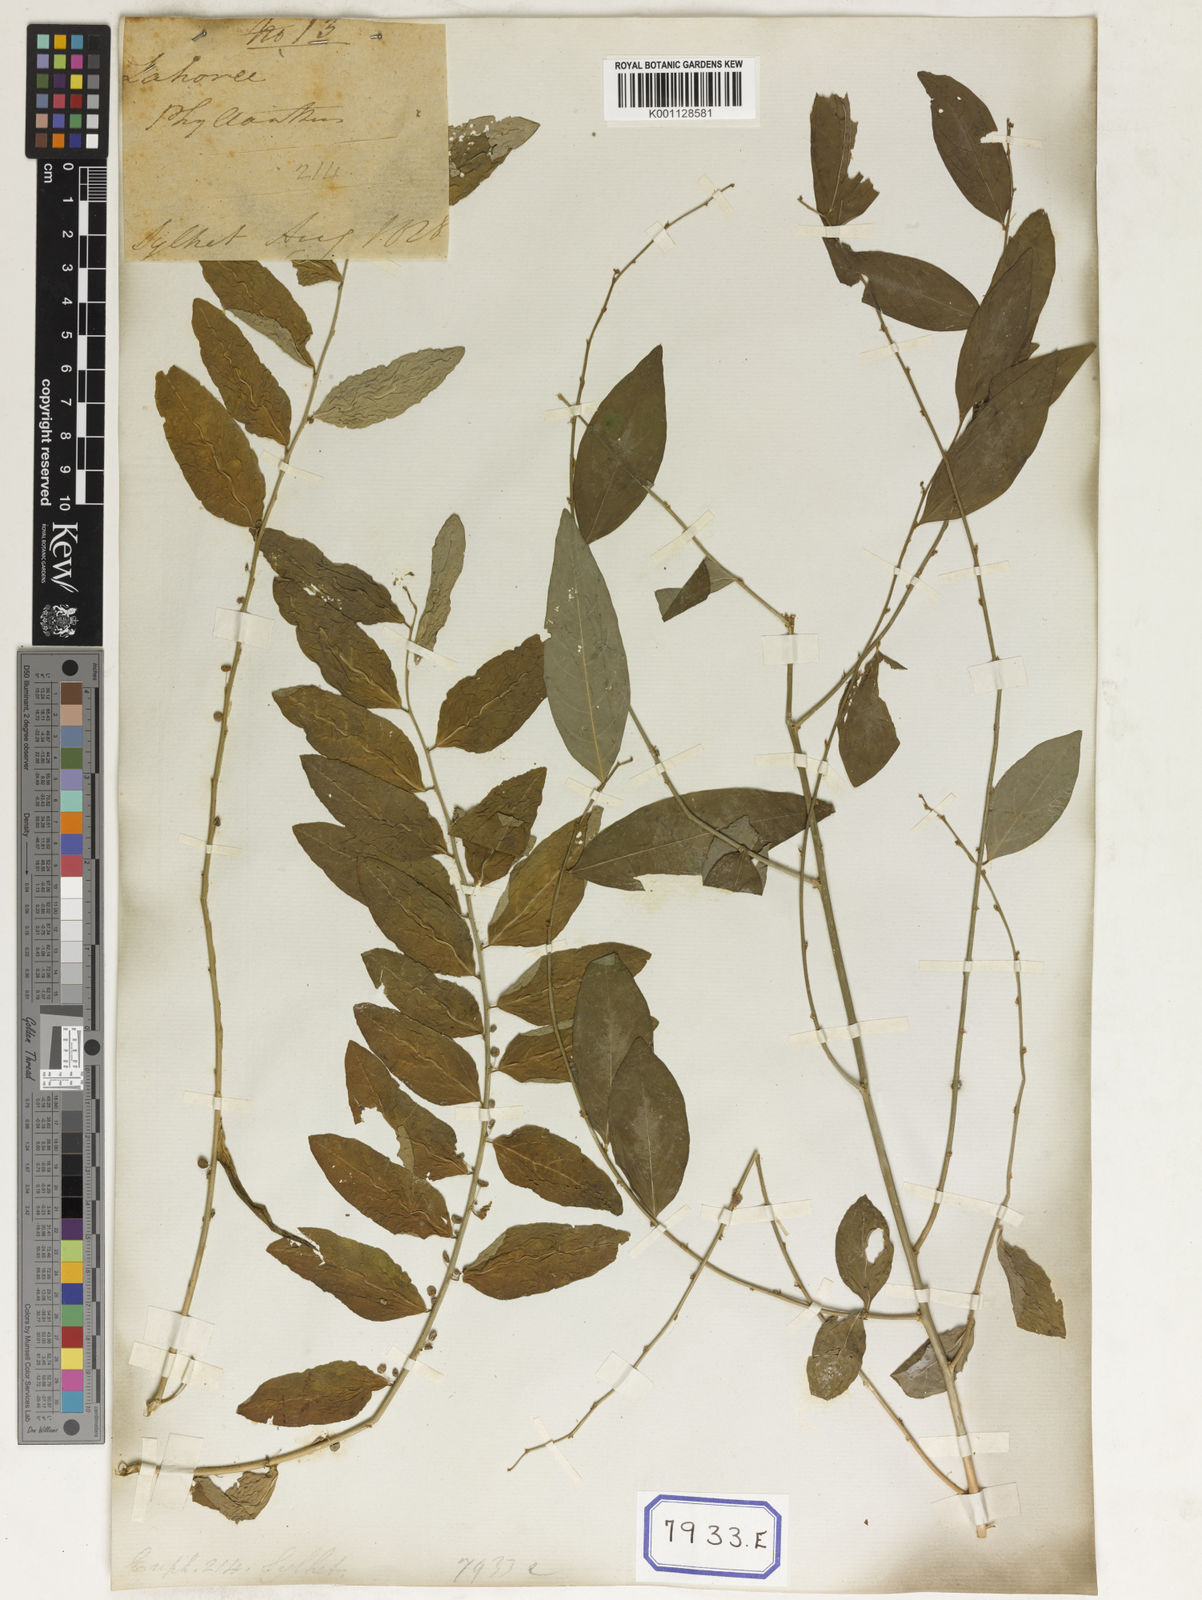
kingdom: Plantae
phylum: Tracheophyta
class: Magnoliopsida
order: Malpighiales
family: Euphorbiaceae
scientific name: Euphorbiaceae
